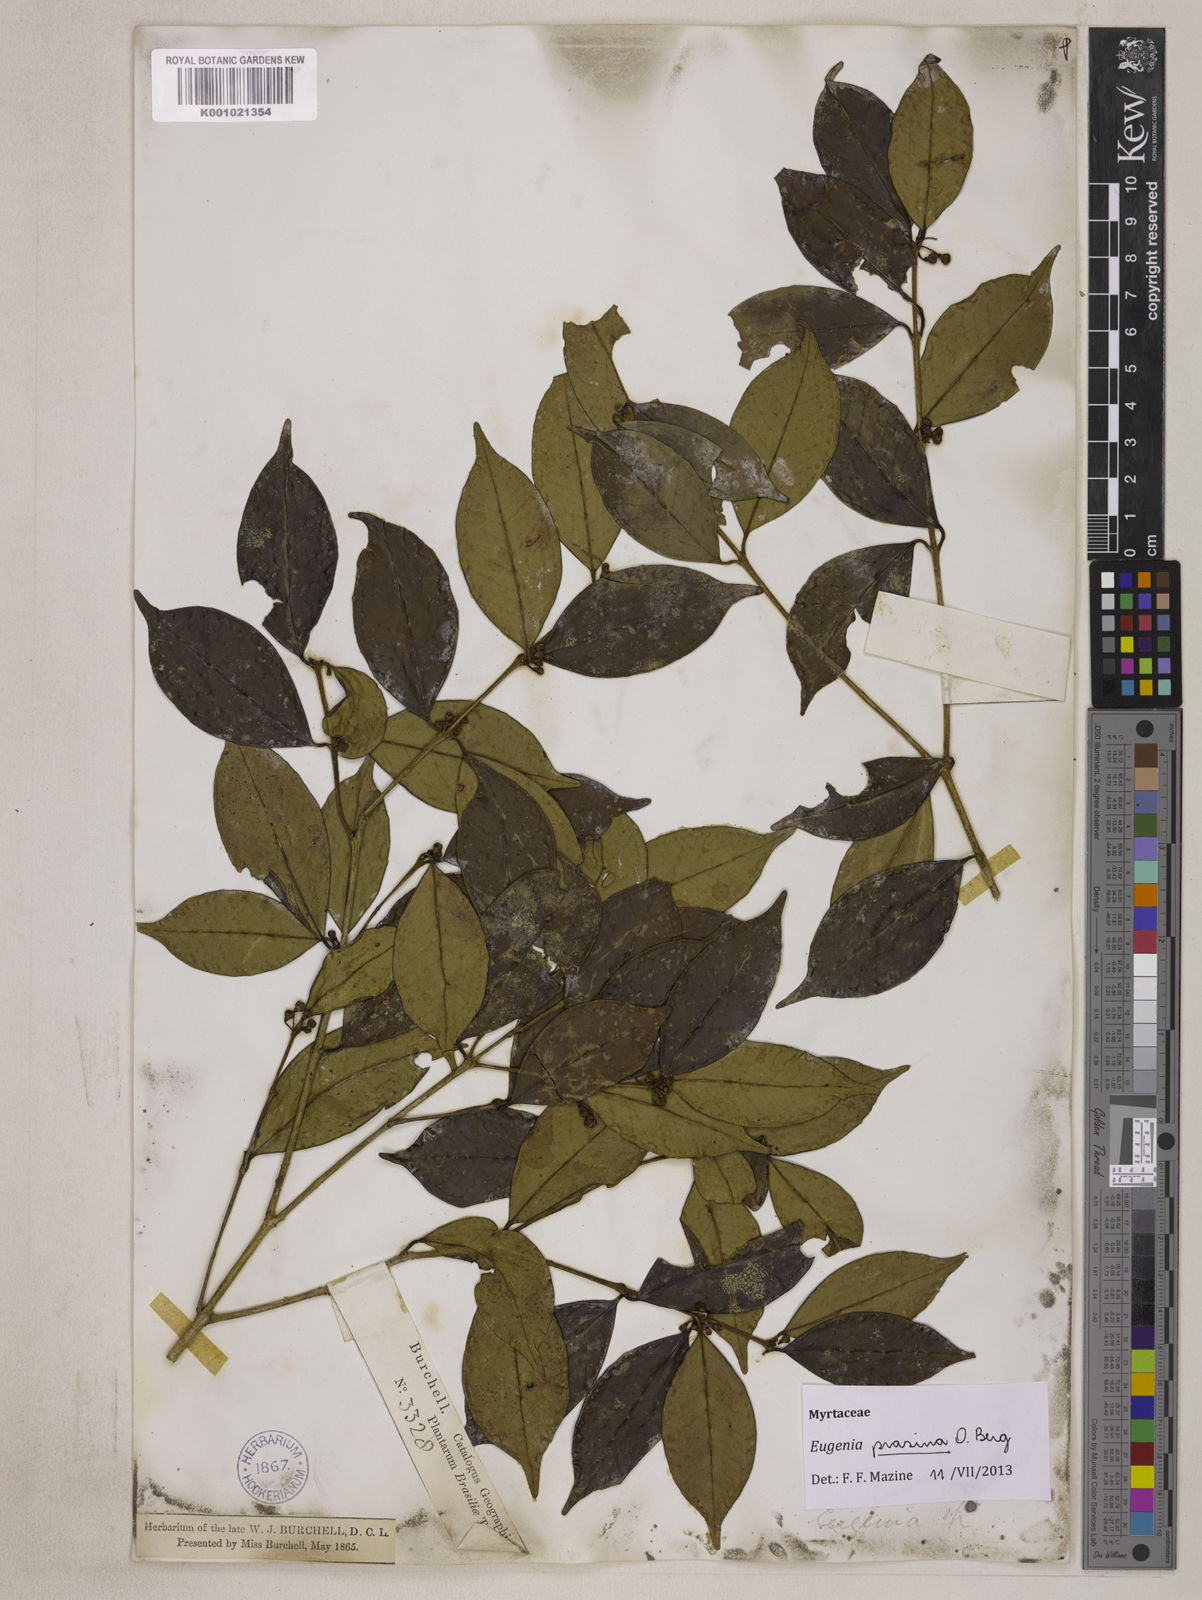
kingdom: Plantae
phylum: Tracheophyta
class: Magnoliopsida
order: Myrtales
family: Myrtaceae
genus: Eugenia
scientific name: Eugenia prasina
